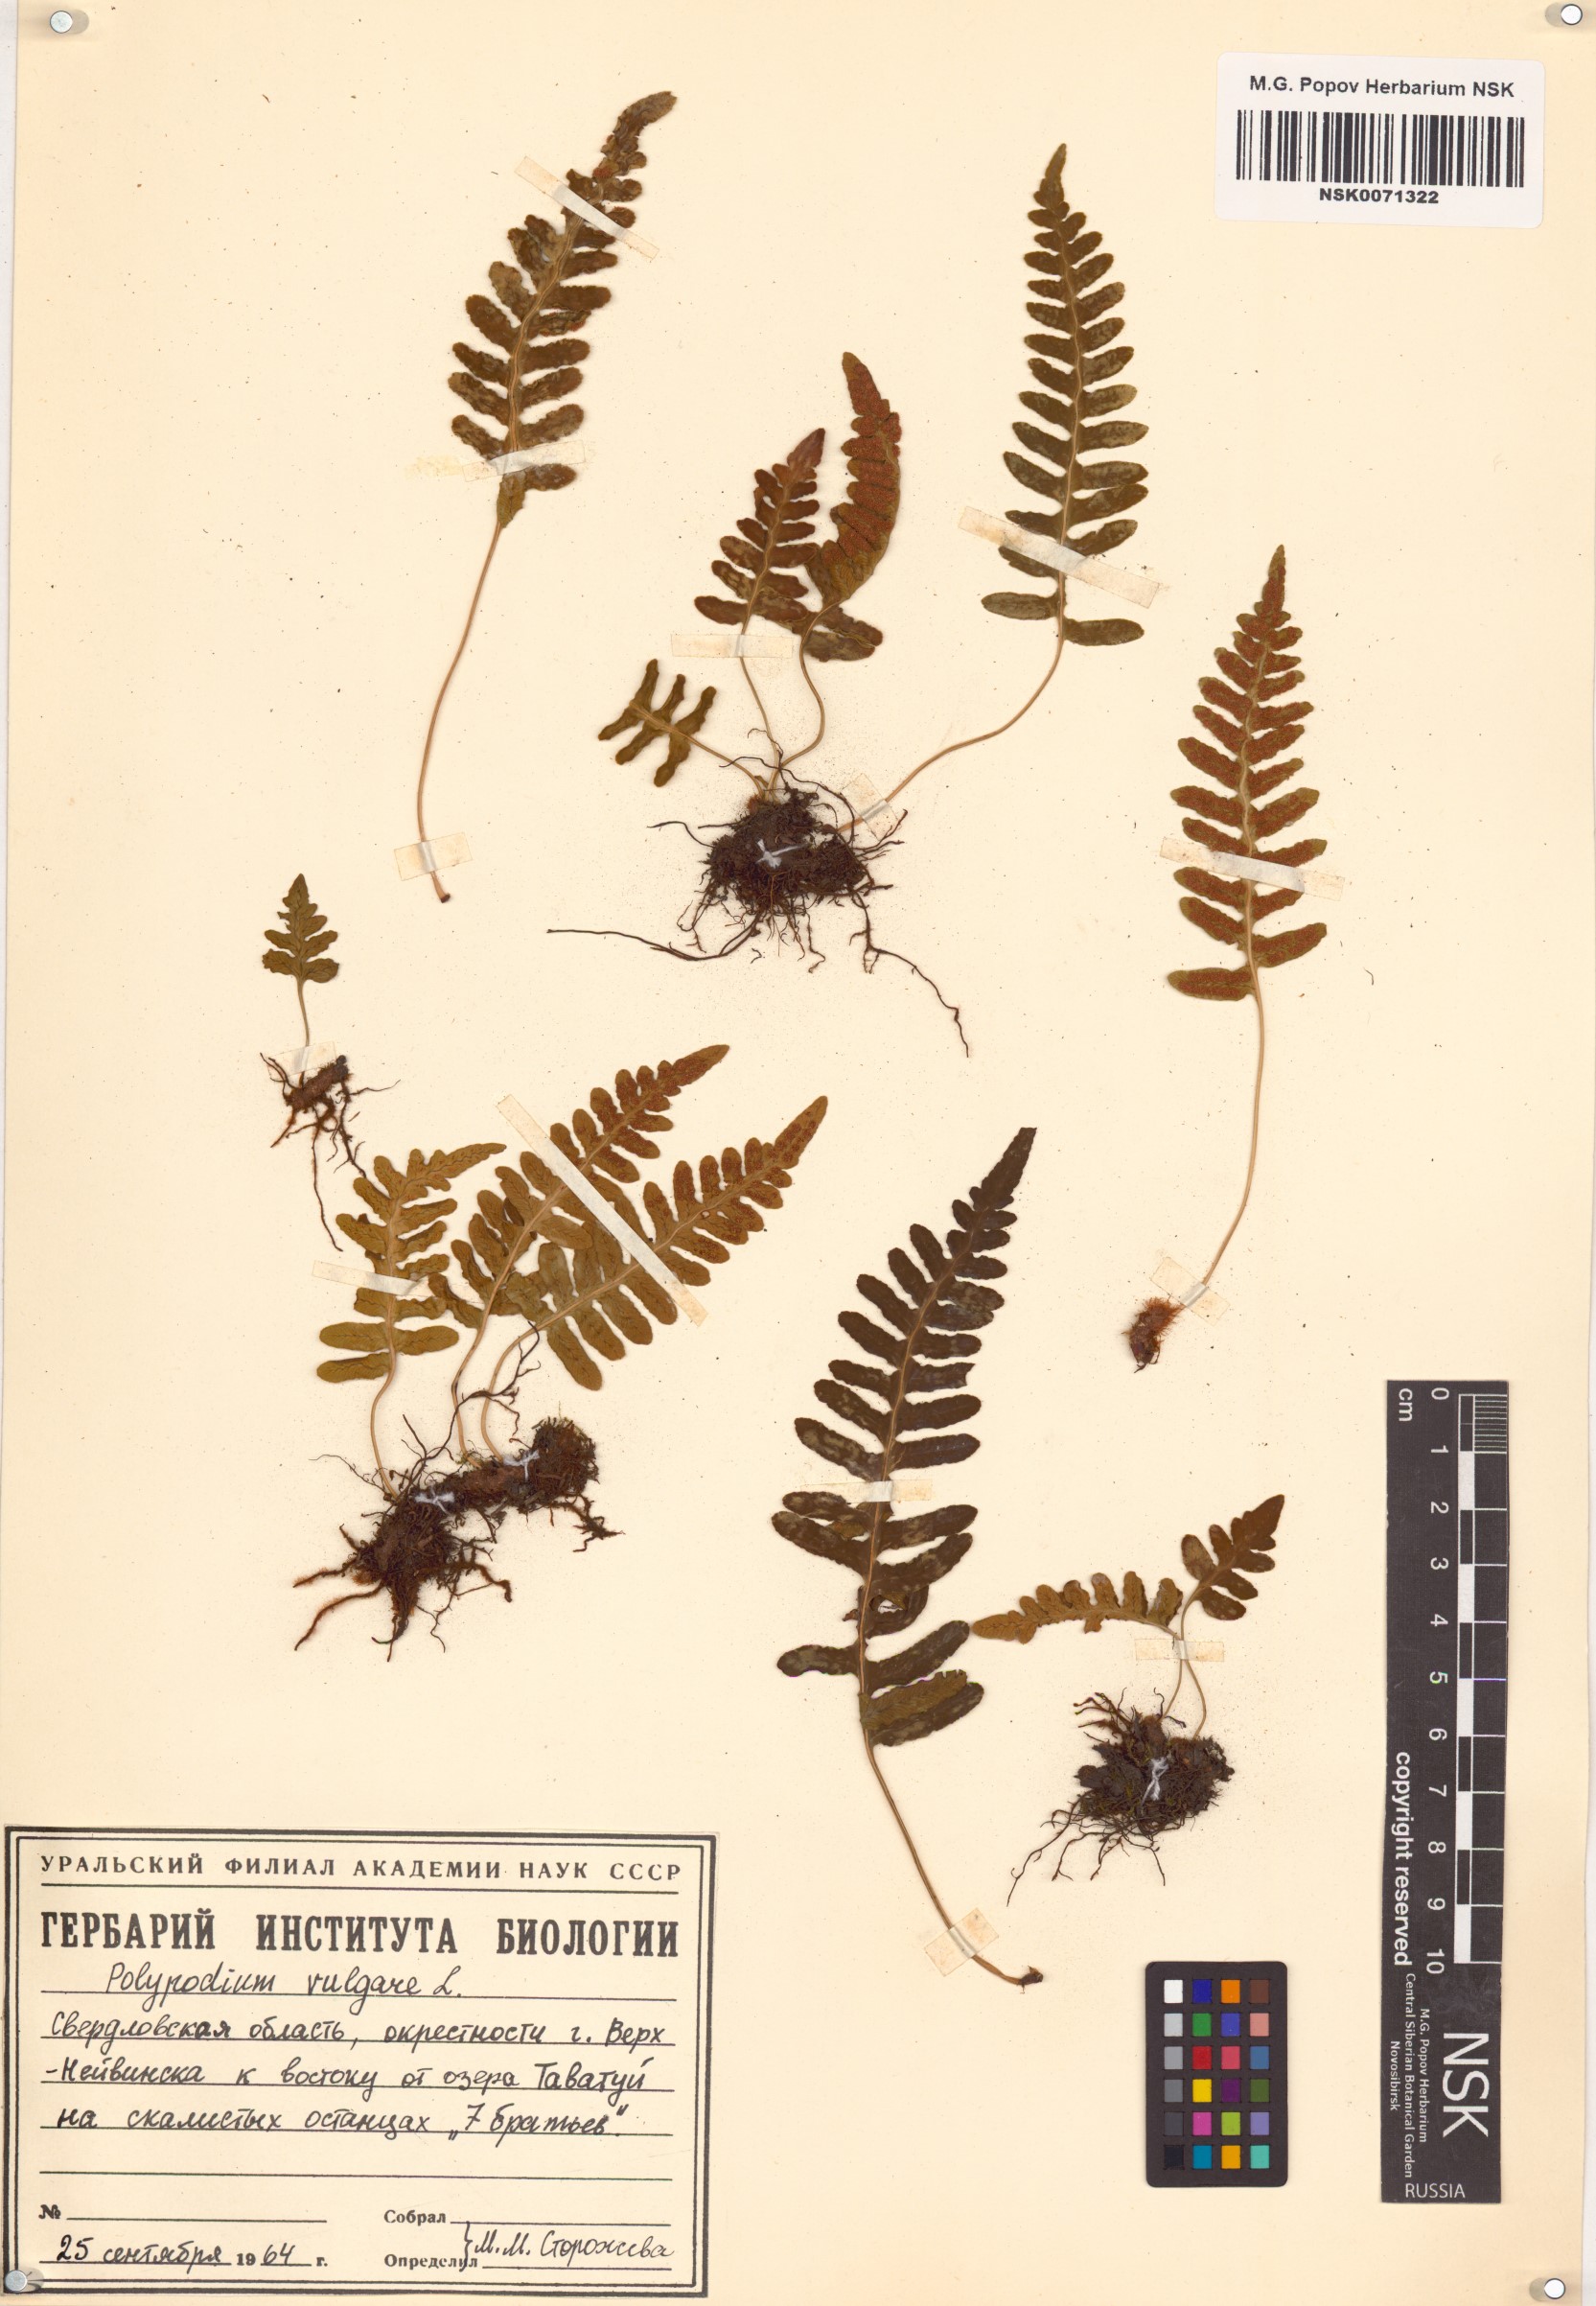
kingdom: Plantae
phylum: Tracheophyta
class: Polypodiopsida
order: Polypodiales
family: Polypodiaceae
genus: Polypodium
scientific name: Polypodium vulgare
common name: Common polypody
